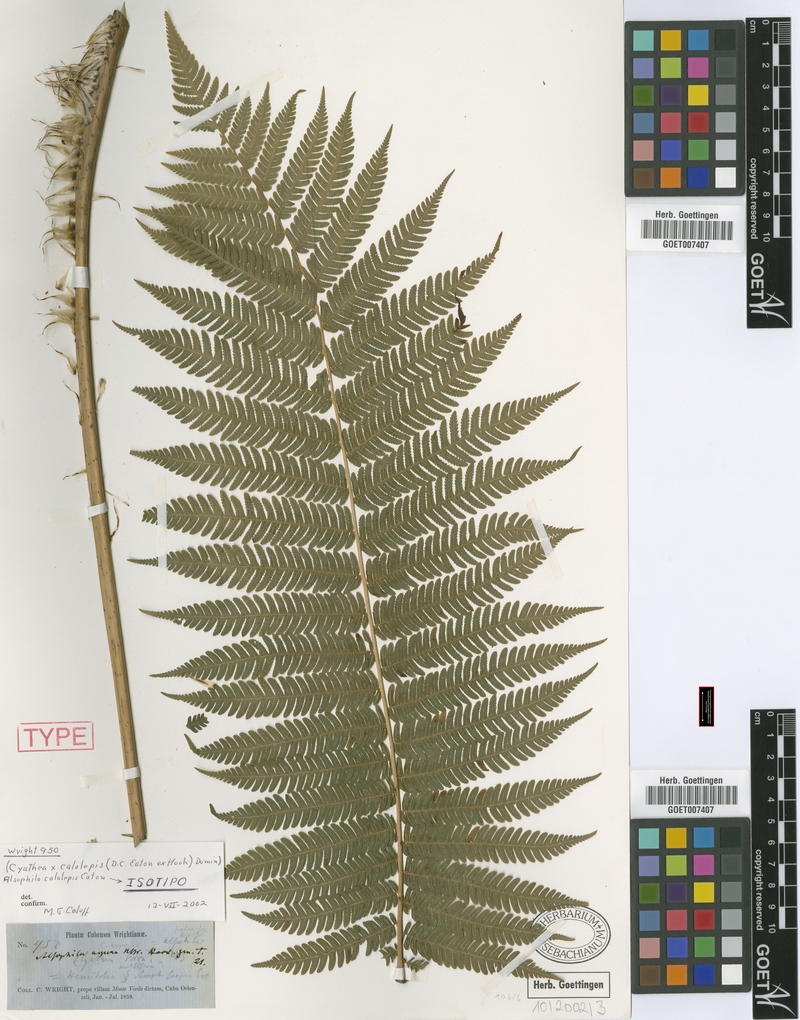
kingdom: Plantae
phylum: Tracheophyta
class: Polypodiopsida
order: Cyatheales
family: Cyatheaceae
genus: Cyathea
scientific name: Cyathea calolepis
